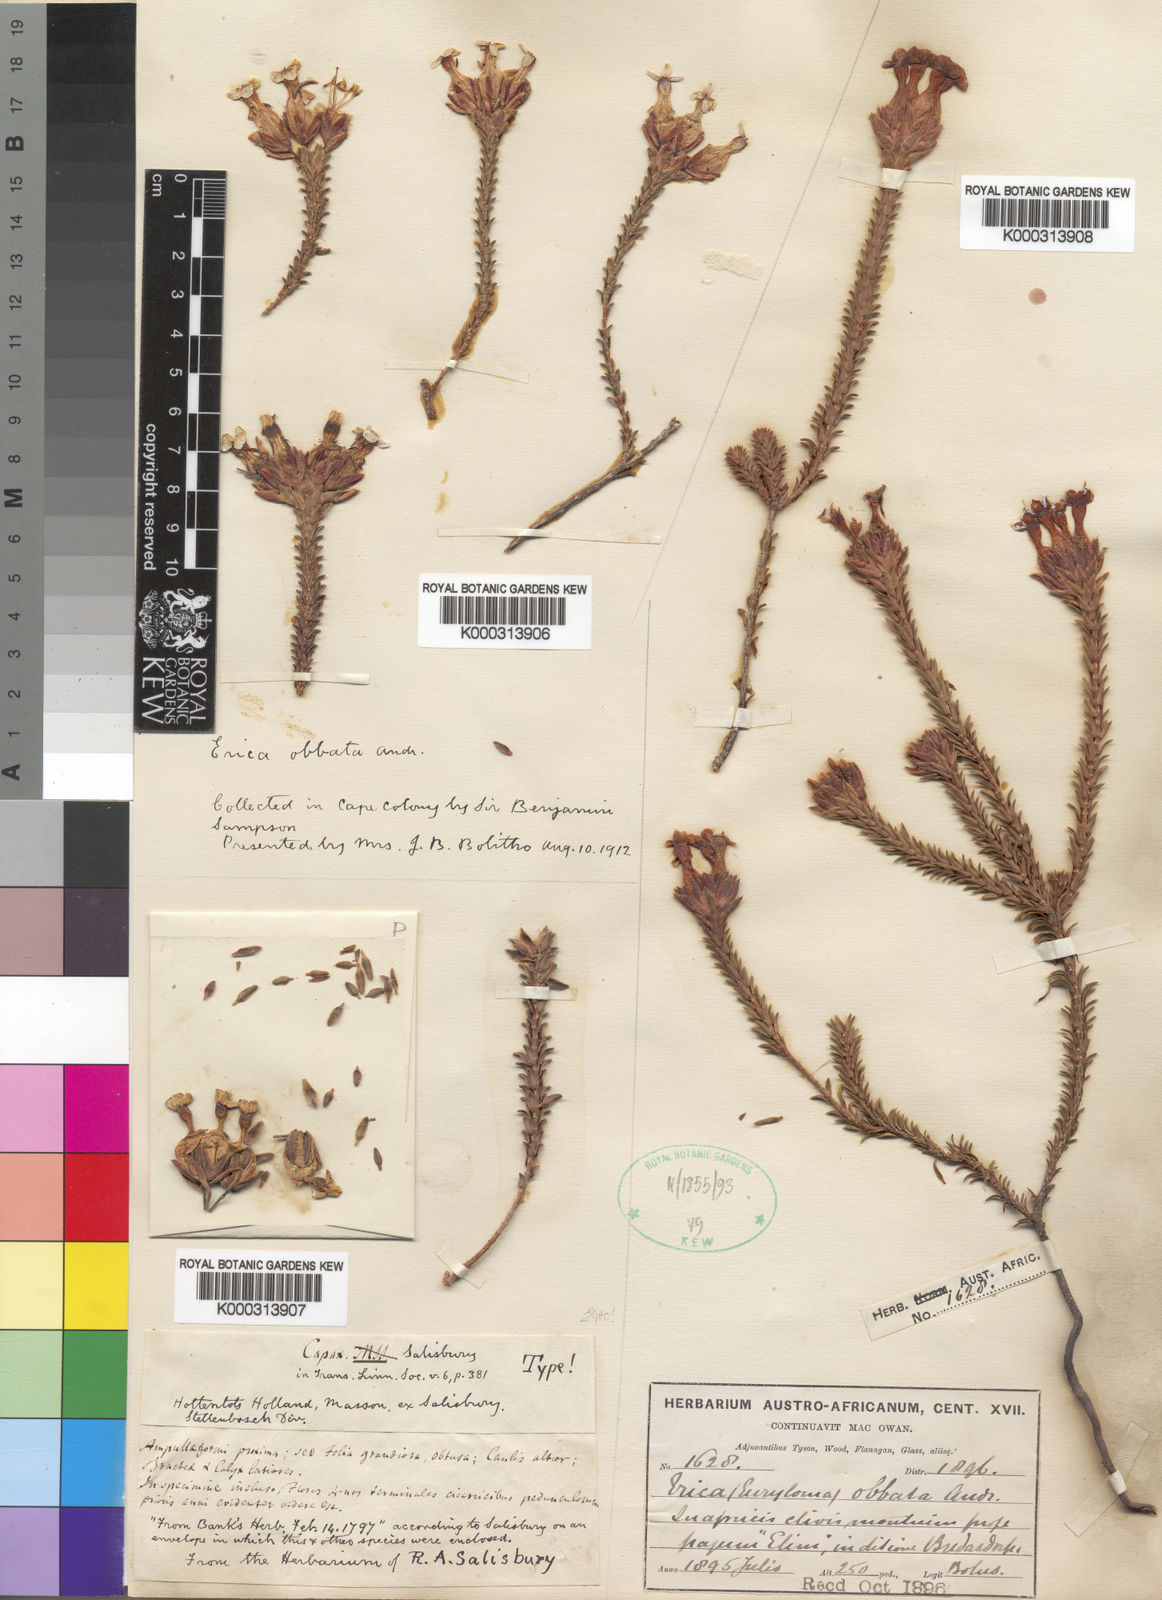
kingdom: Plantae
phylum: Tracheophyta
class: Magnoliopsida
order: Ericales
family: Ericaceae
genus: Erica
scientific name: Erica
